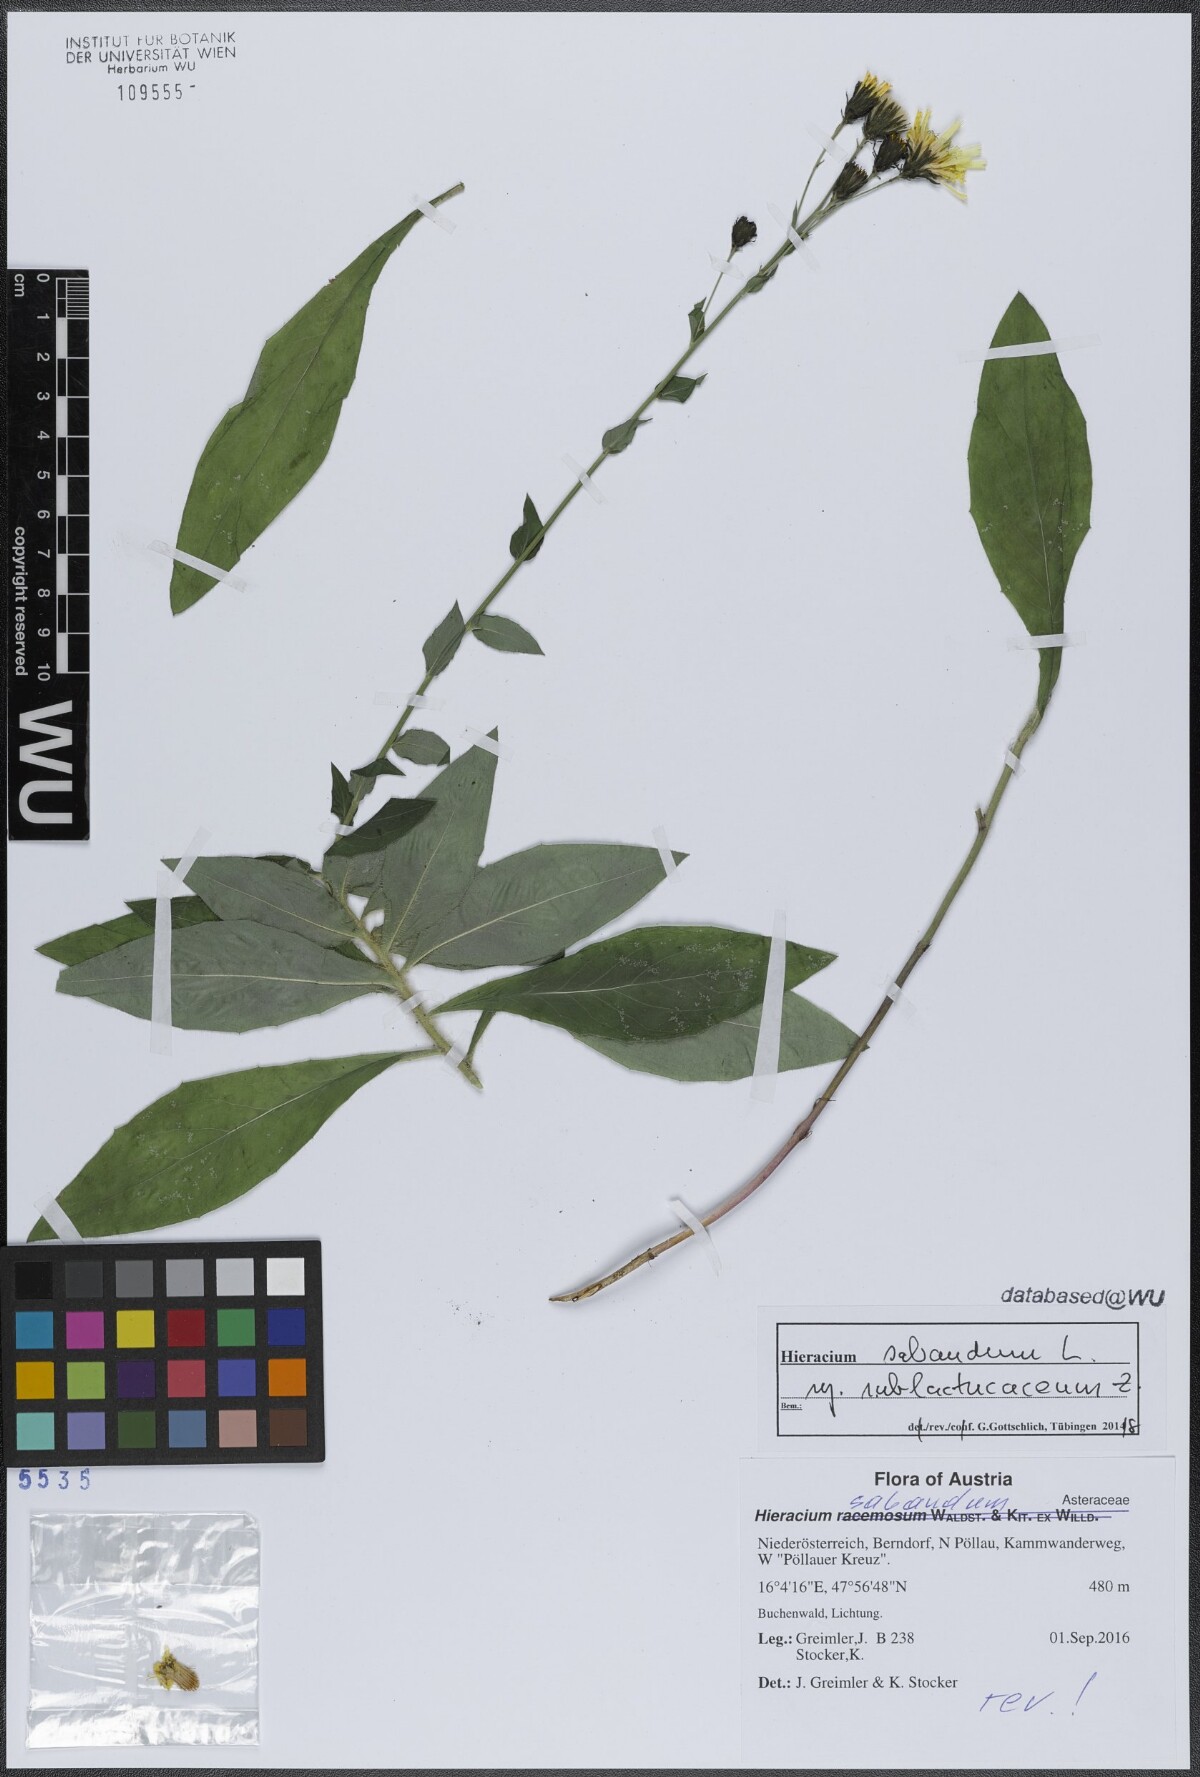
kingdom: Plantae
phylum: Tracheophyta
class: Magnoliopsida
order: Asterales
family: Asteraceae
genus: Hieracium
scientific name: Hieracium sabaudum
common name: New england hawkweed
